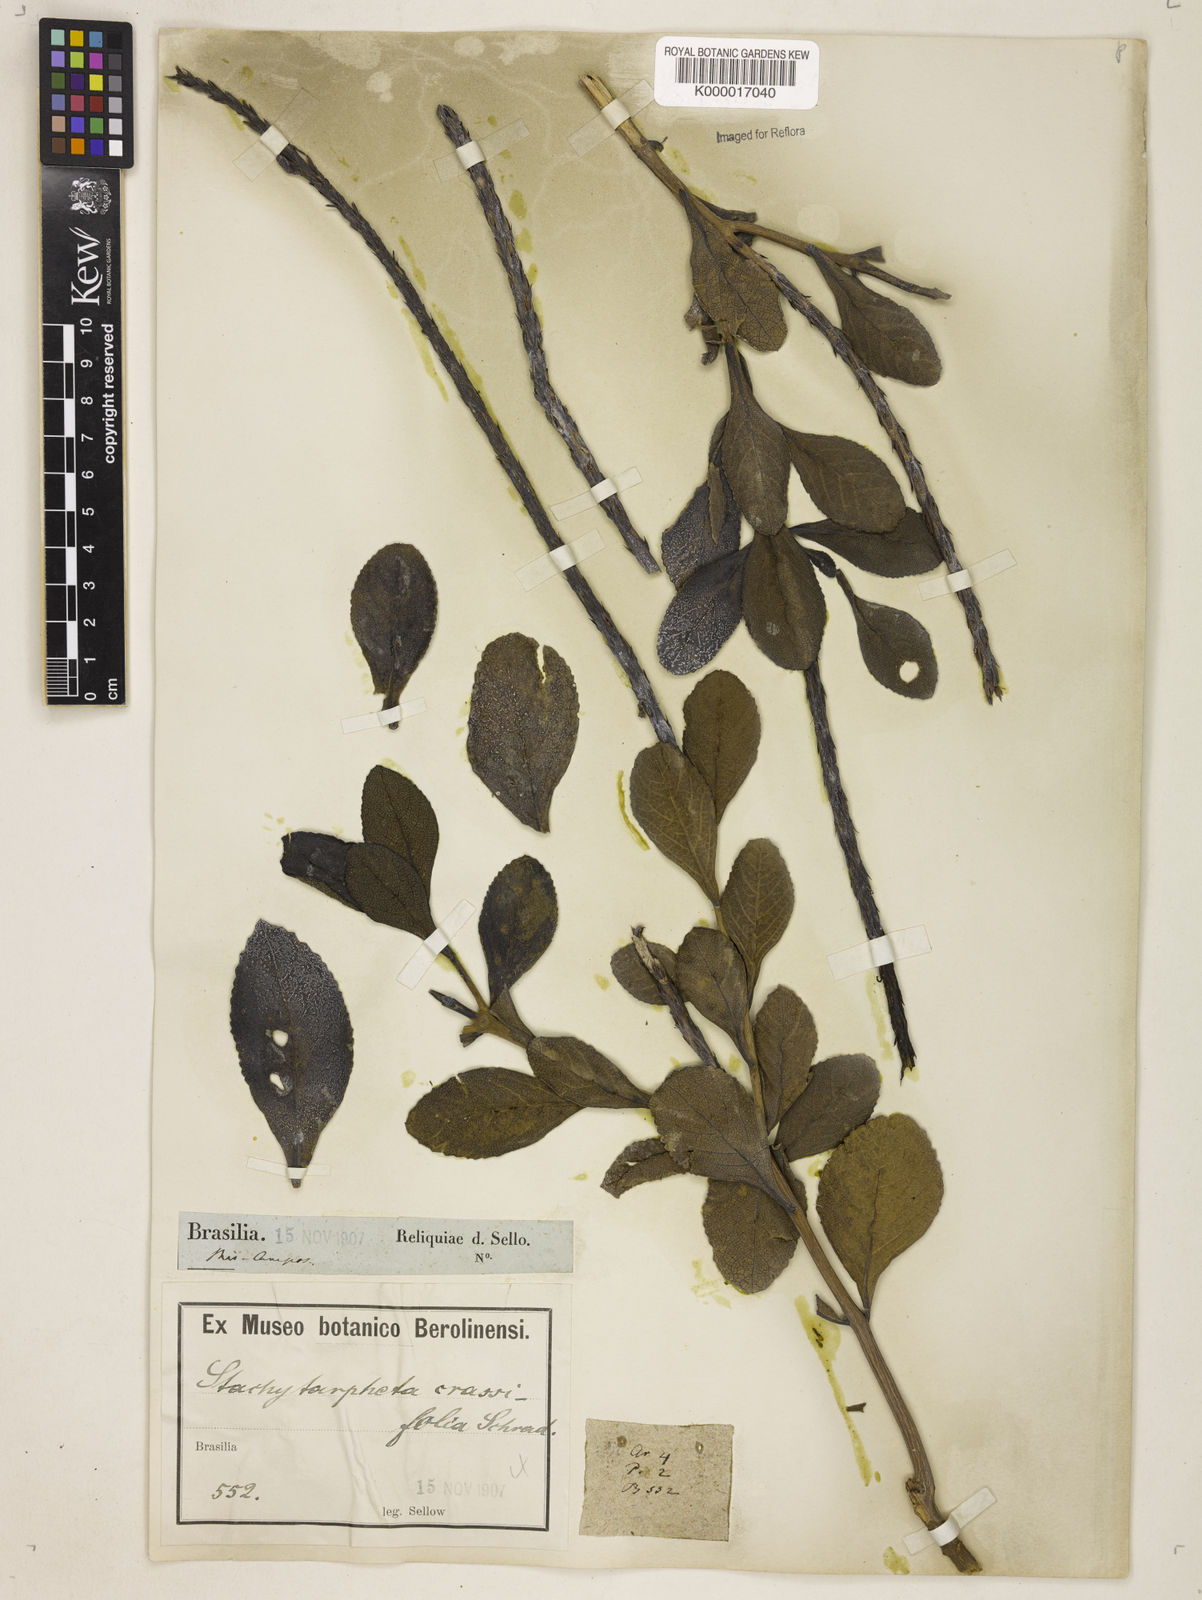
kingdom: Plantae
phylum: Tracheophyta
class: Magnoliopsida
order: Lamiales
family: Verbenaceae
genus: Stachytarpheta
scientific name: Stachytarpheta crassifolia
